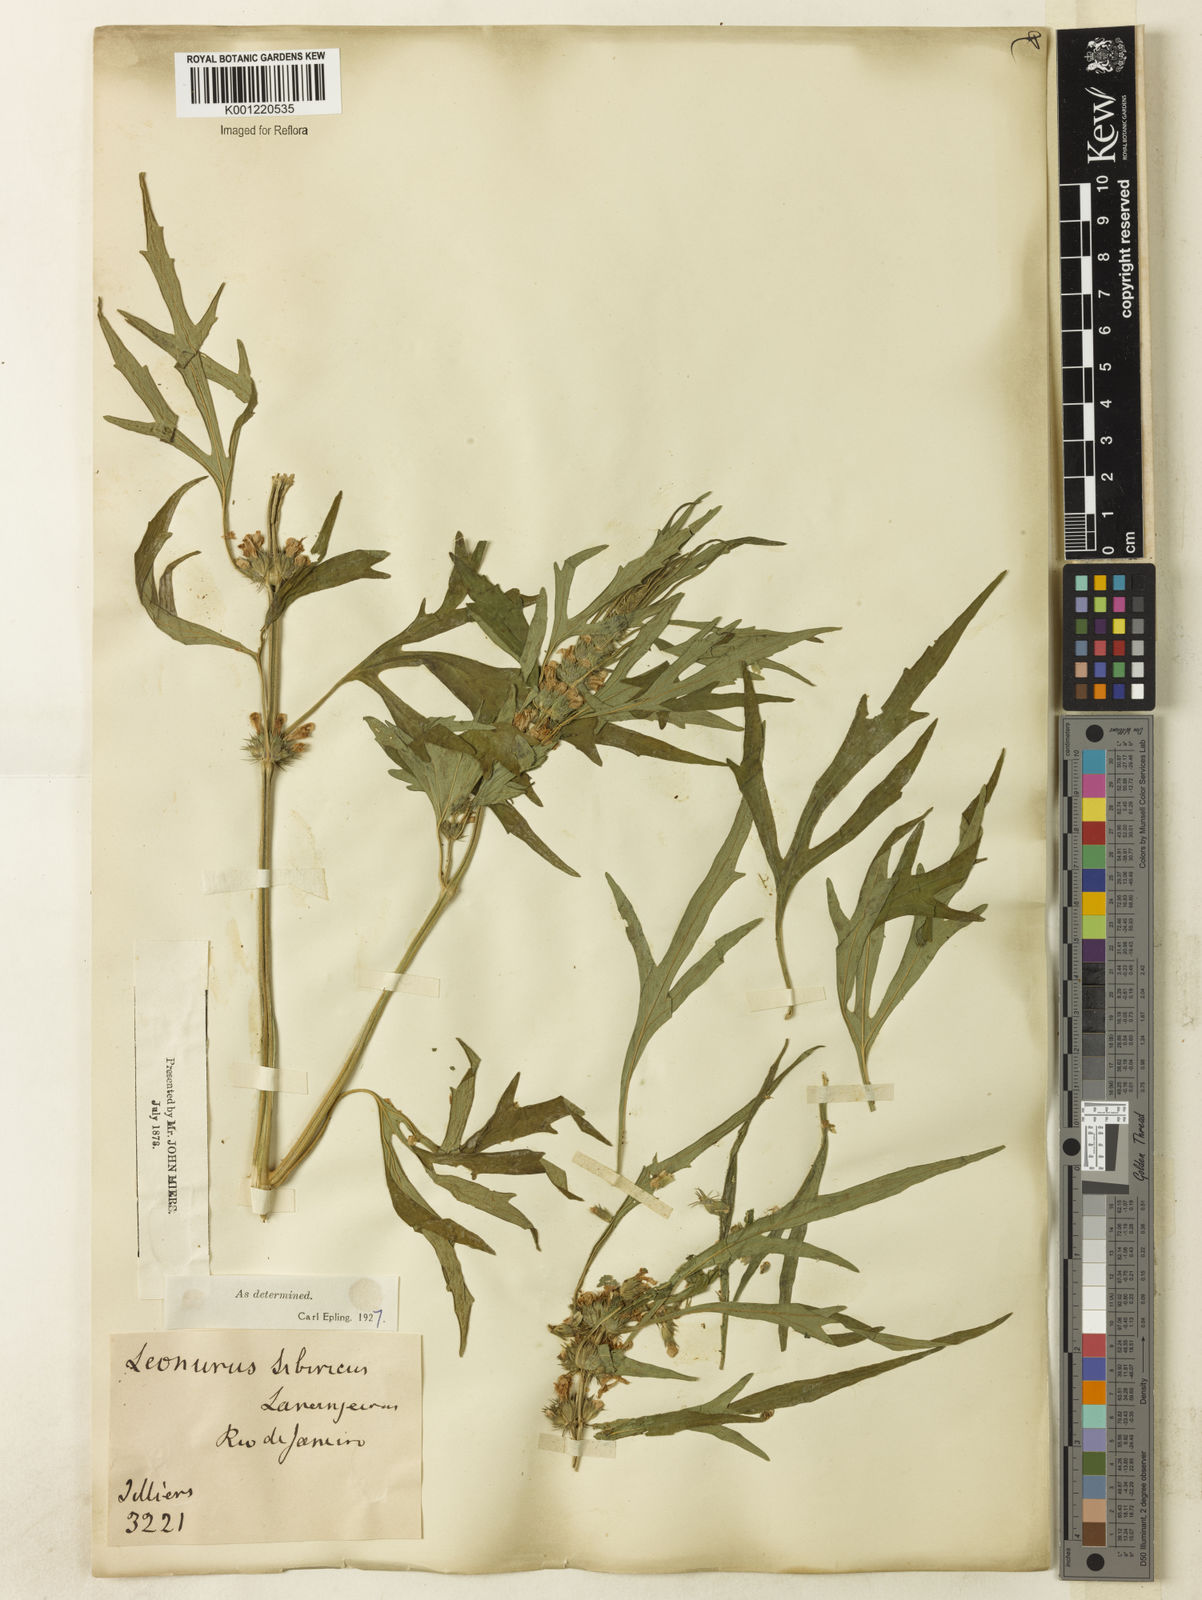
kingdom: Plantae
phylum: Tracheophyta
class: Magnoliopsida
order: Lamiales
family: Lamiaceae
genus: Leonurus
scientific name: Leonurus japonicus
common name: Honeyweed
